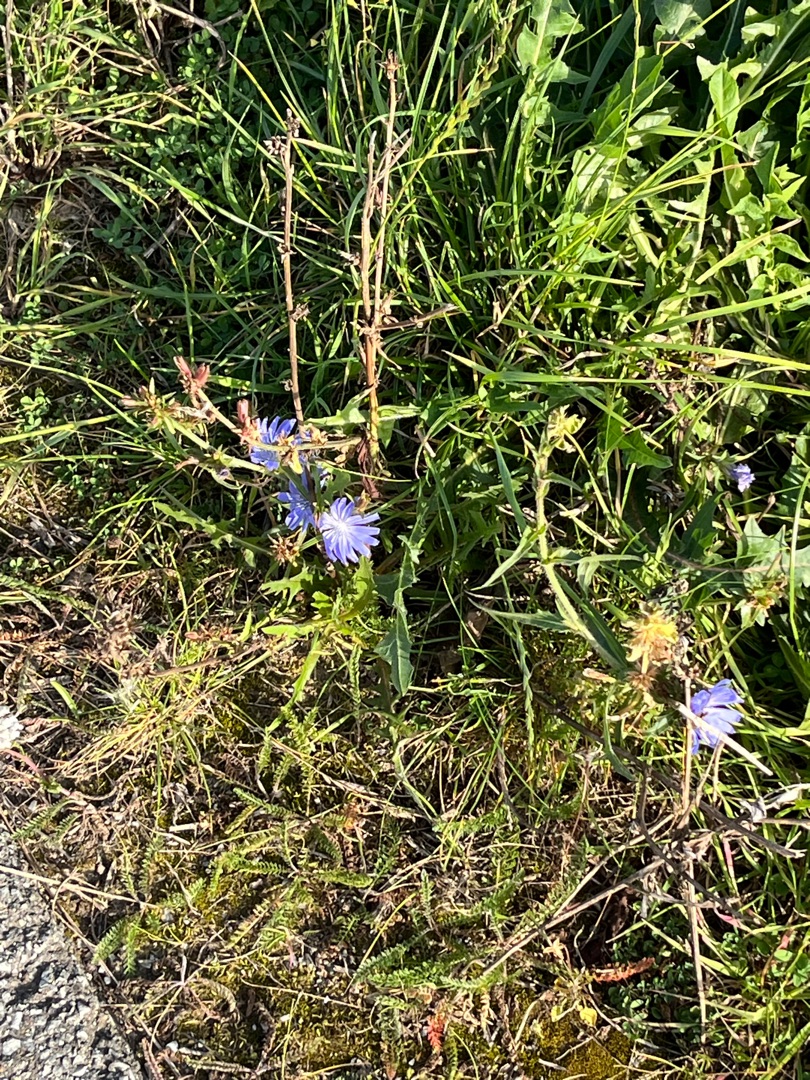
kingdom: Plantae
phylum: Tracheophyta
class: Magnoliopsida
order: Asterales
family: Asteraceae
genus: Cichorium
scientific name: Cichorium intybus
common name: Cikorie (varietet)
